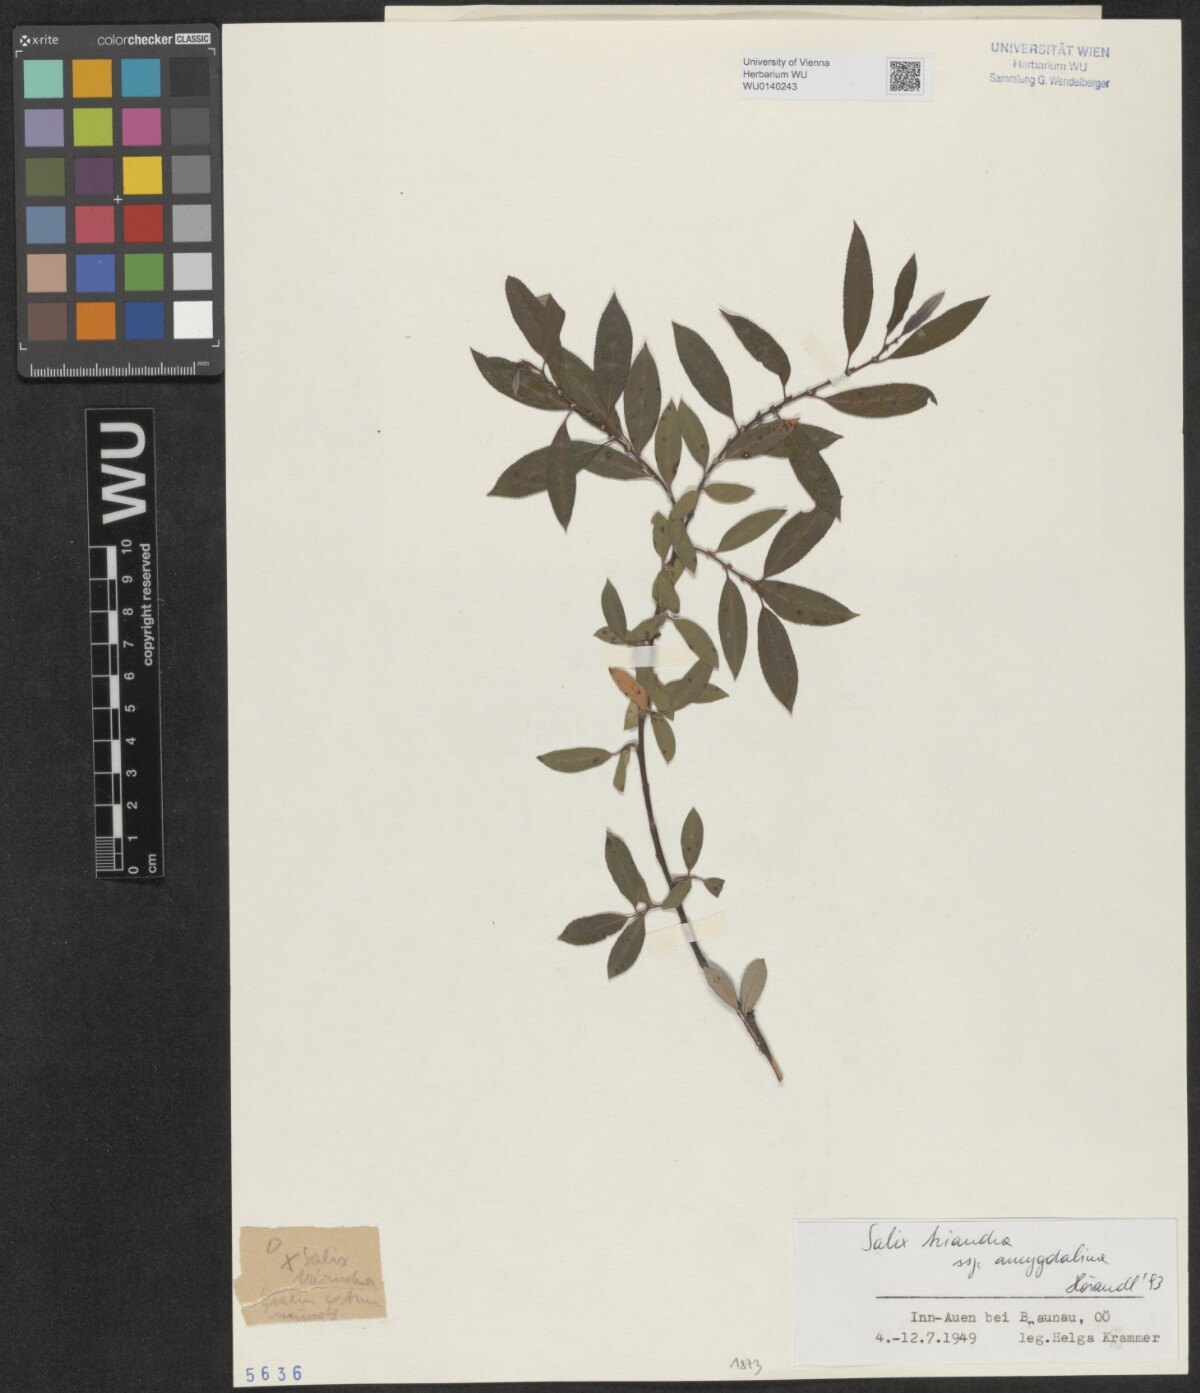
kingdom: Plantae
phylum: Tracheophyta
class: Magnoliopsida
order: Malpighiales
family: Salicaceae
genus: Salix
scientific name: Salix triandra
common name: Almond willow
